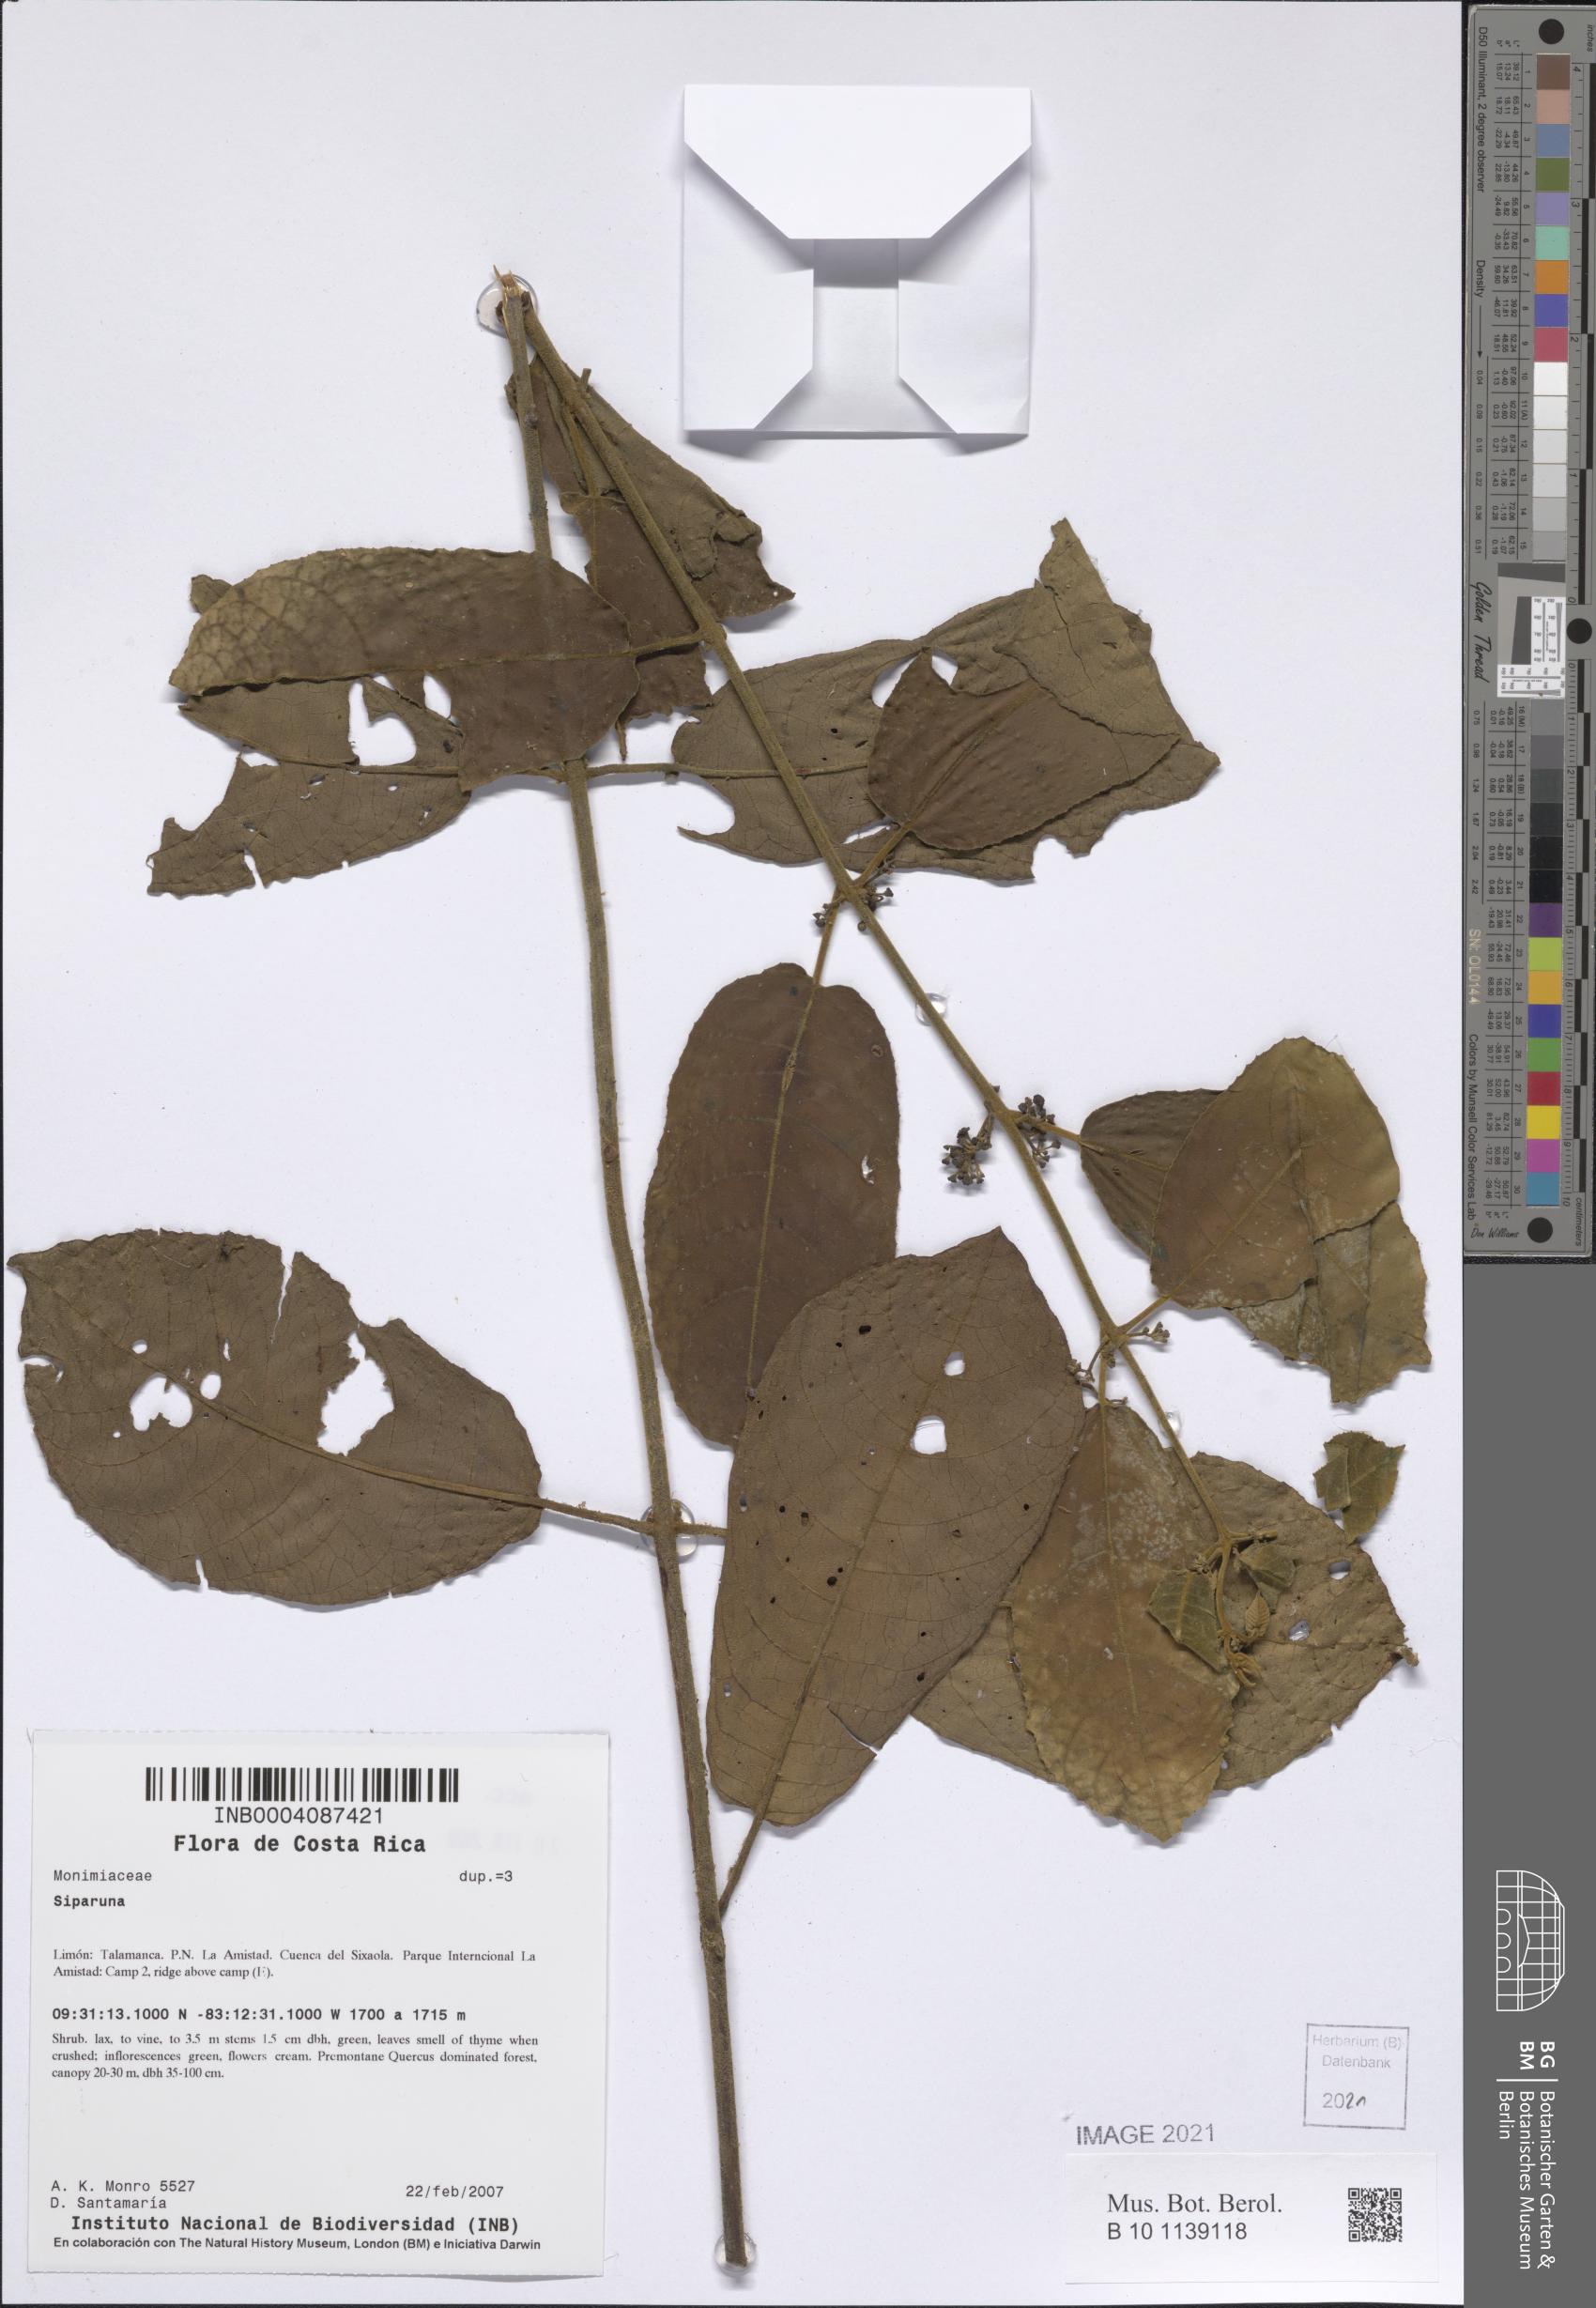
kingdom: Plantae
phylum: Tracheophyta
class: Magnoliopsida
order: Laurales
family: Siparunaceae
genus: Siparuna
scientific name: Siparuna
